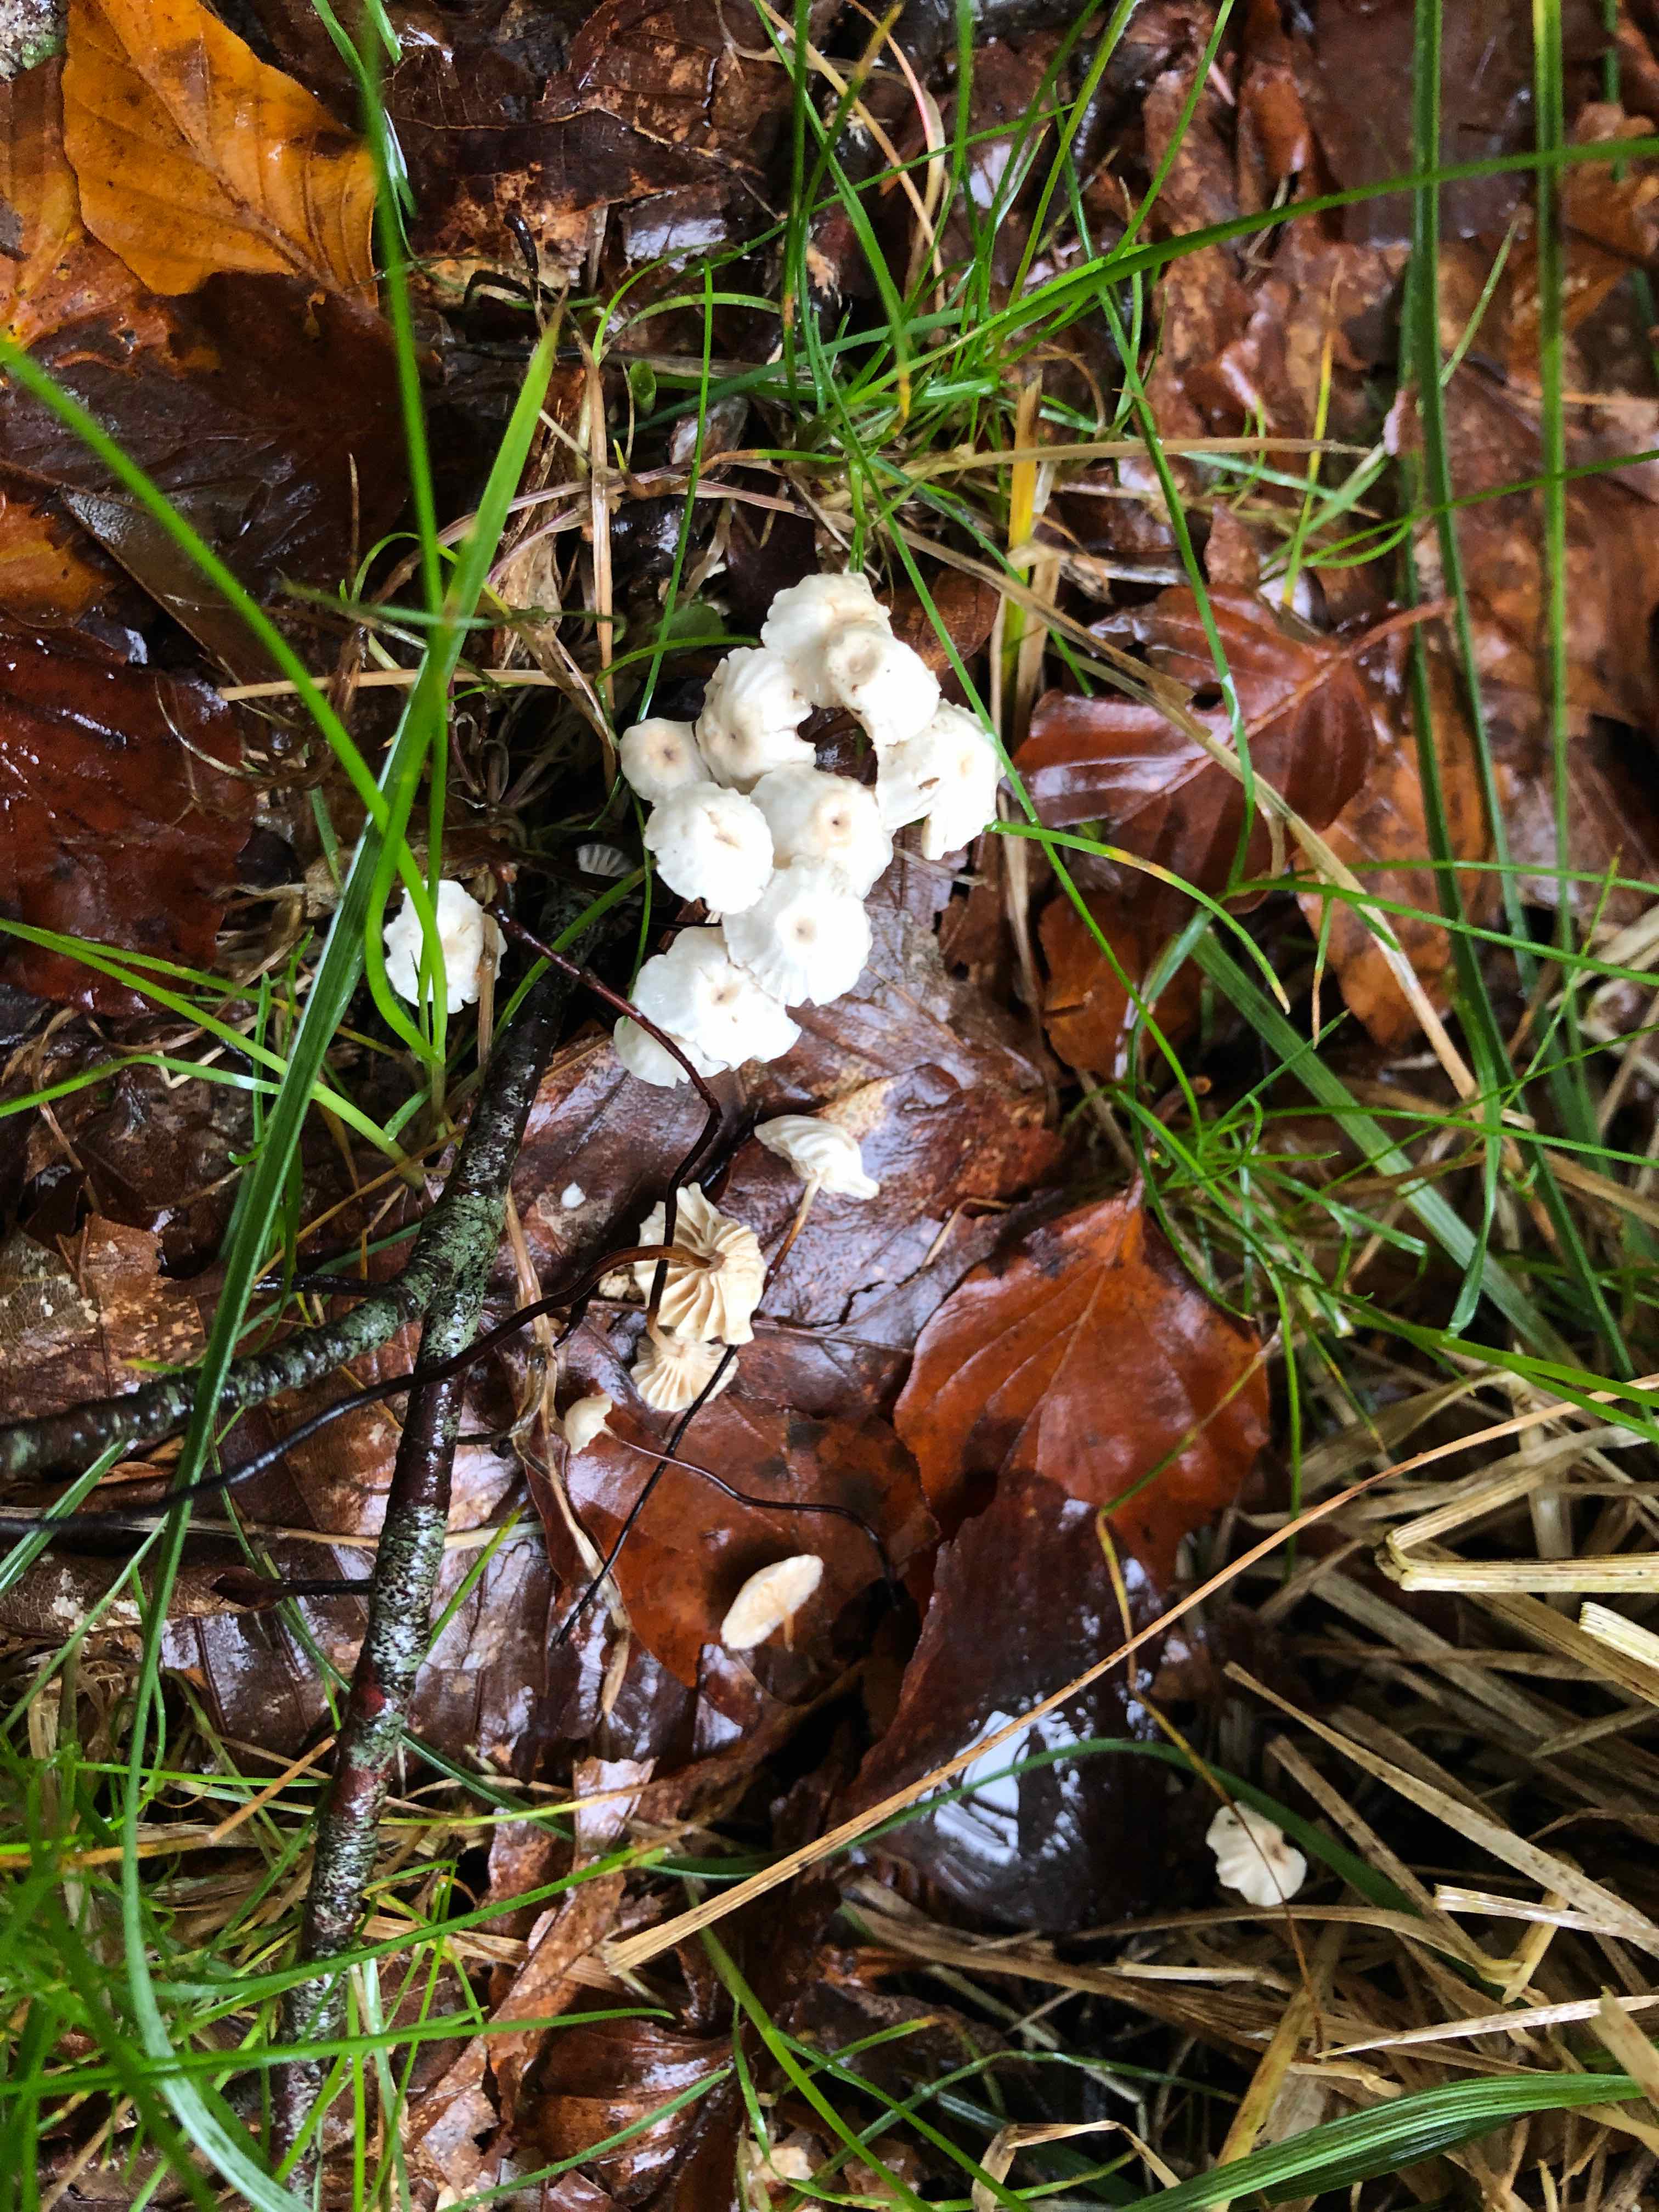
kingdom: Fungi
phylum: Basidiomycota
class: Agaricomycetes
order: Agaricales
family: Marasmiaceae
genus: Marasmius
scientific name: Marasmius rotula
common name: hjul-bruskhat
